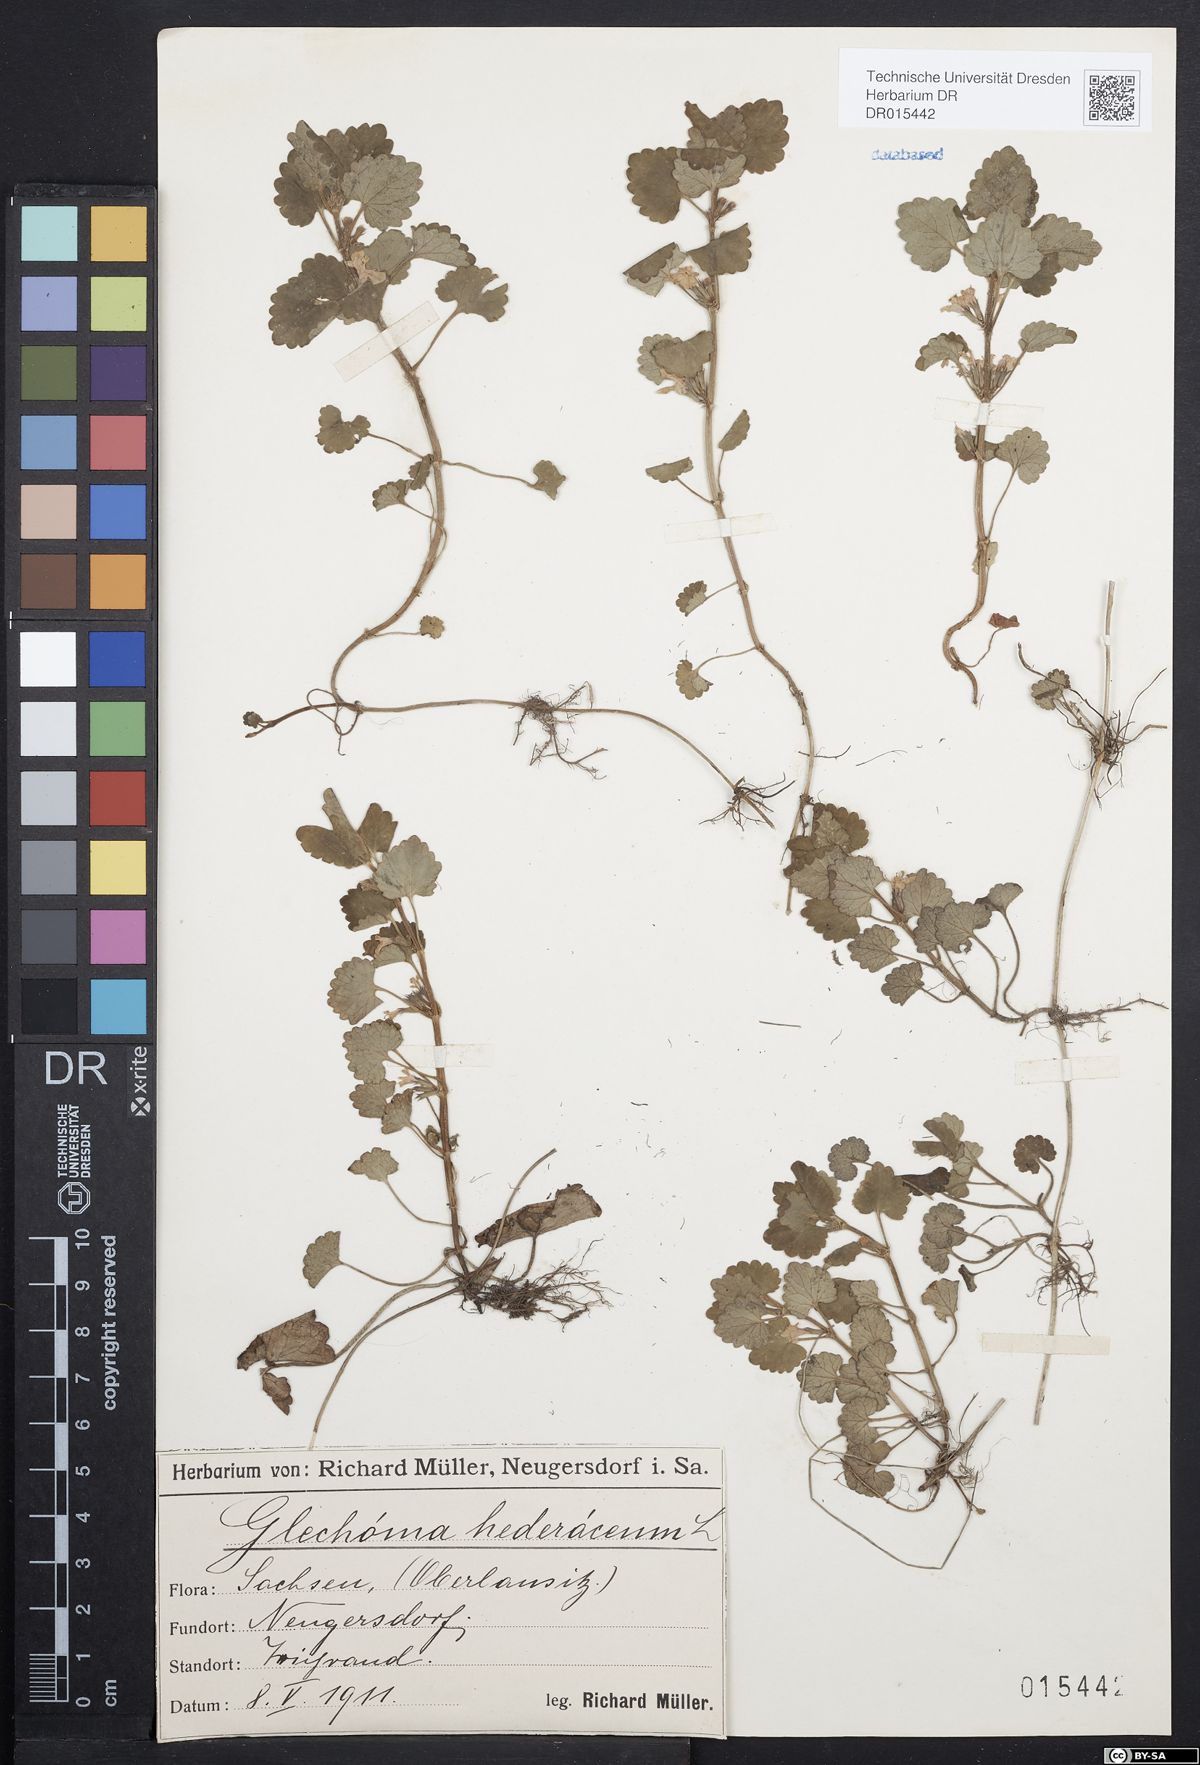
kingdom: Plantae
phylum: Tracheophyta
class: Magnoliopsida
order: Lamiales
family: Lamiaceae
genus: Glechoma
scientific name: Glechoma hederacea
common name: Ground ivy
